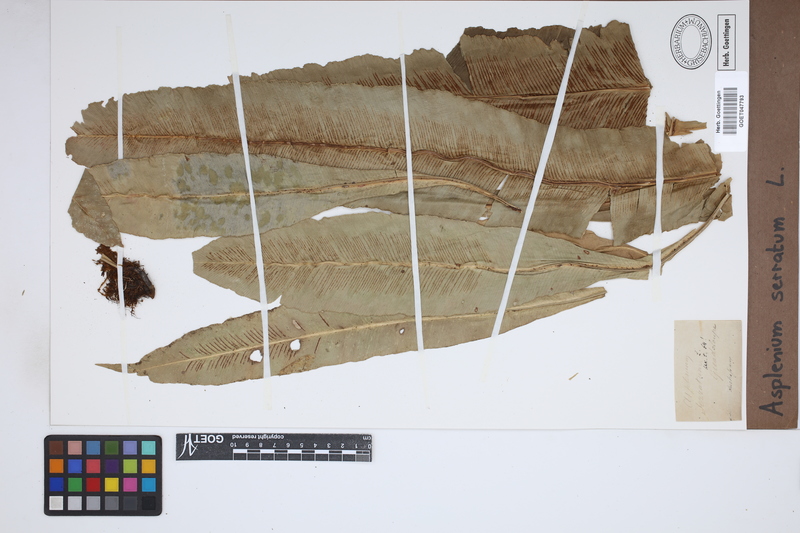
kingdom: Plantae
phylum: Tracheophyta
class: Polypodiopsida
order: Polypodiales
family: Aspleniaceae
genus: Asplenium
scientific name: Asplenium serratum
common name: Wild birdnest fern
